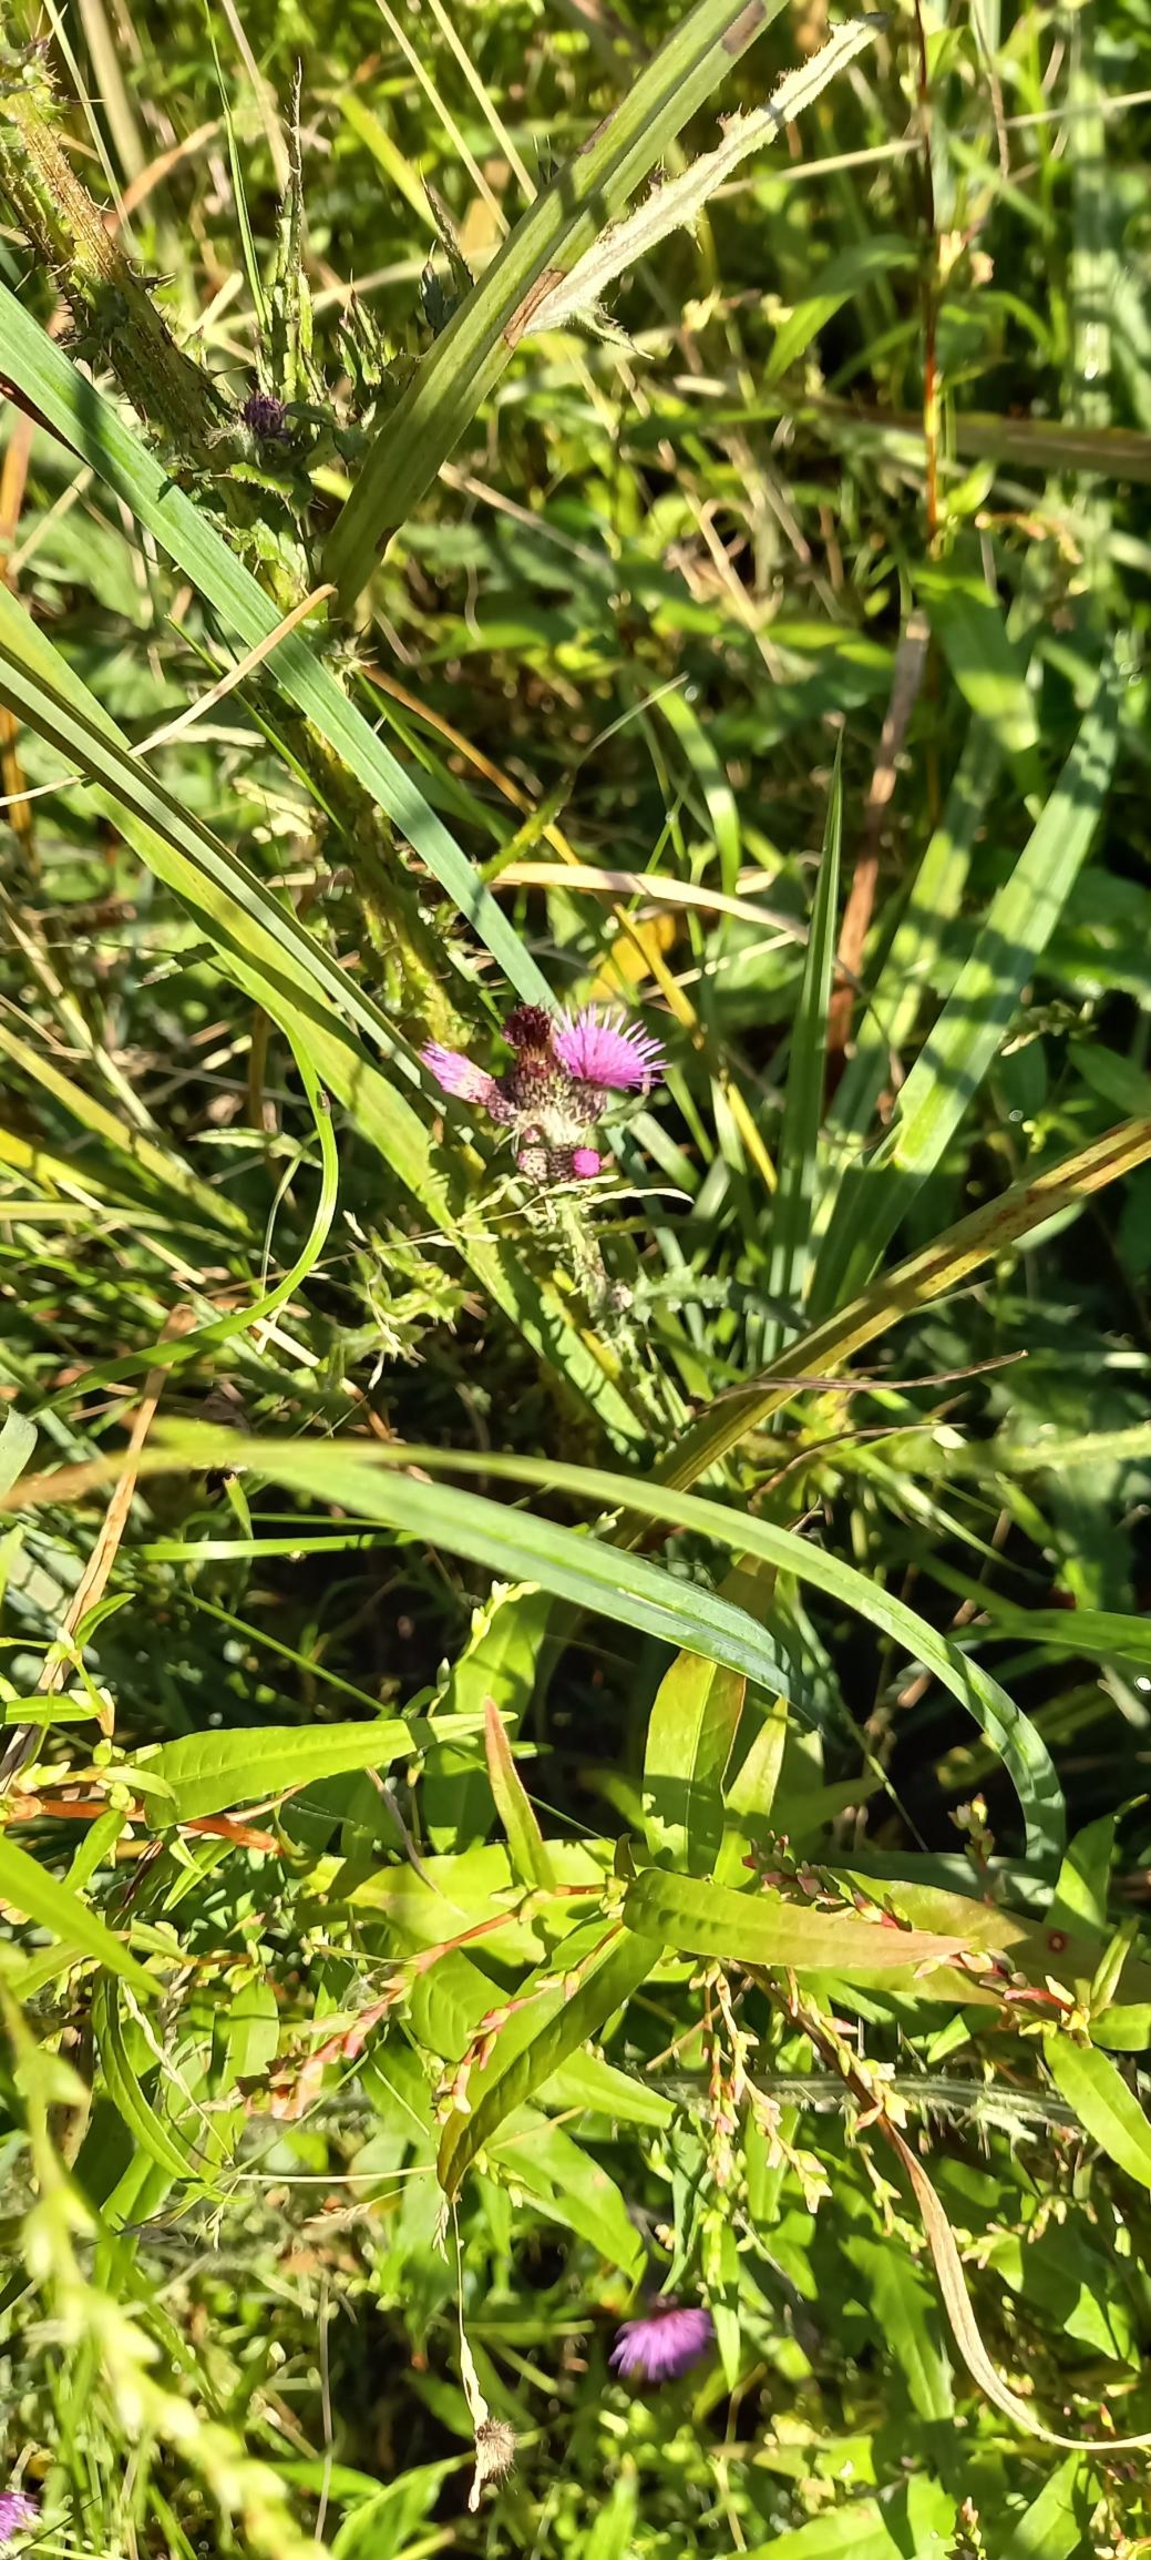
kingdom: Plantae
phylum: Tracheophyta
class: Magnoliopsida
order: Asterales
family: Asteraceae
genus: Cirsium
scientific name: Cirsium palustre
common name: Kær-tidsel
